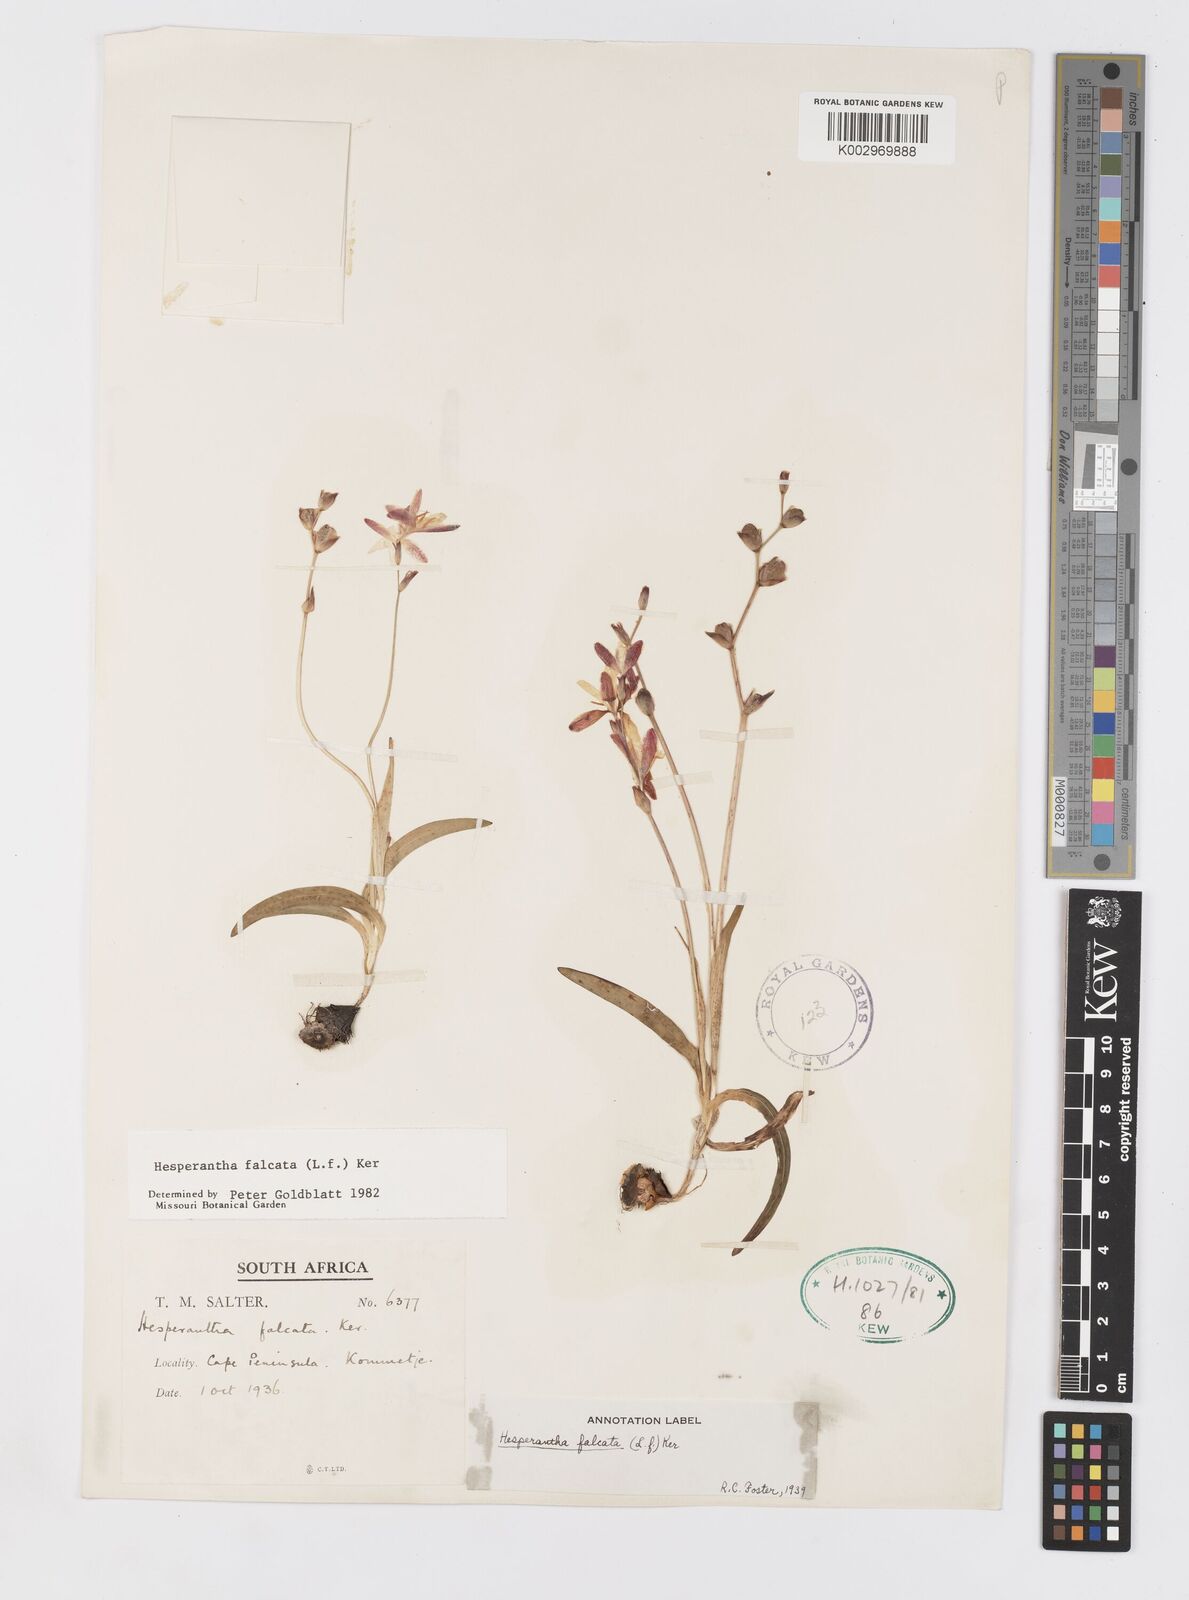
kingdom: Plantae
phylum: Tracheophyta
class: Liliopsida
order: Asparagales
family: Iridaceae
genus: Hesperantha
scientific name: Hesperantha falcata
